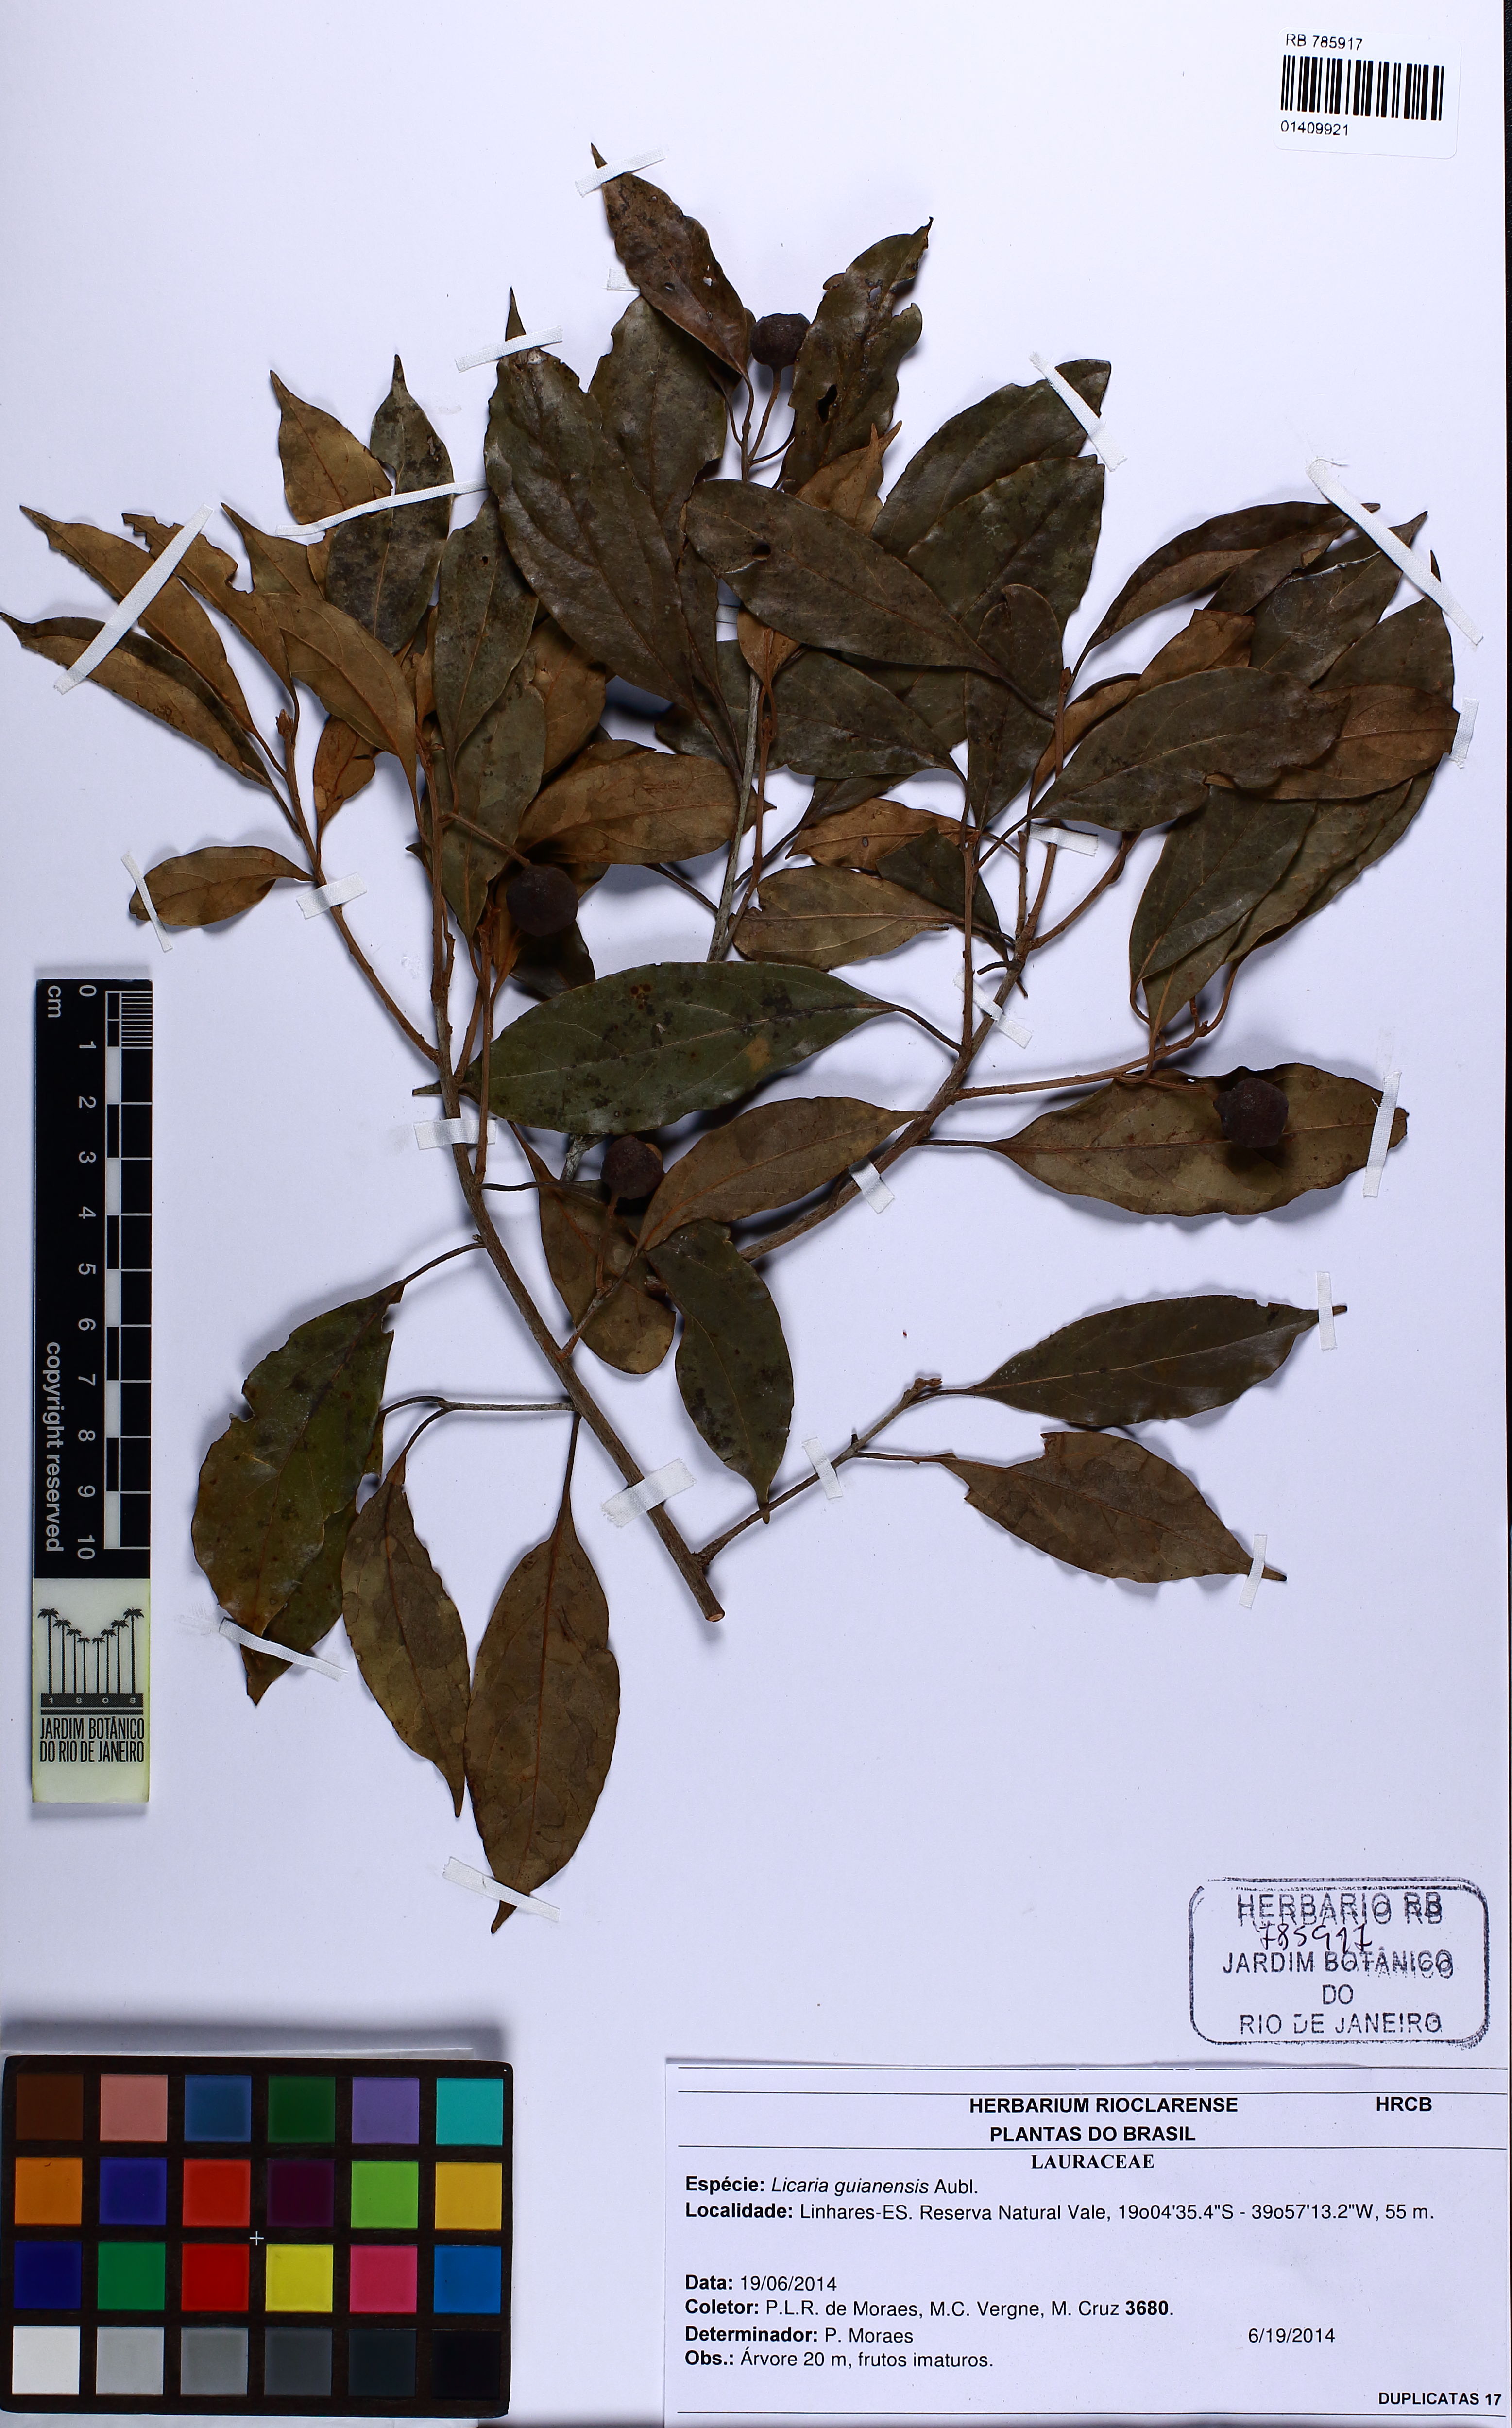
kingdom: Plantae
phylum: Tracheophyta
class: Magnoliopsida
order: Laurales
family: Lauraceae
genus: Licaria
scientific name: Licaria guianensis
